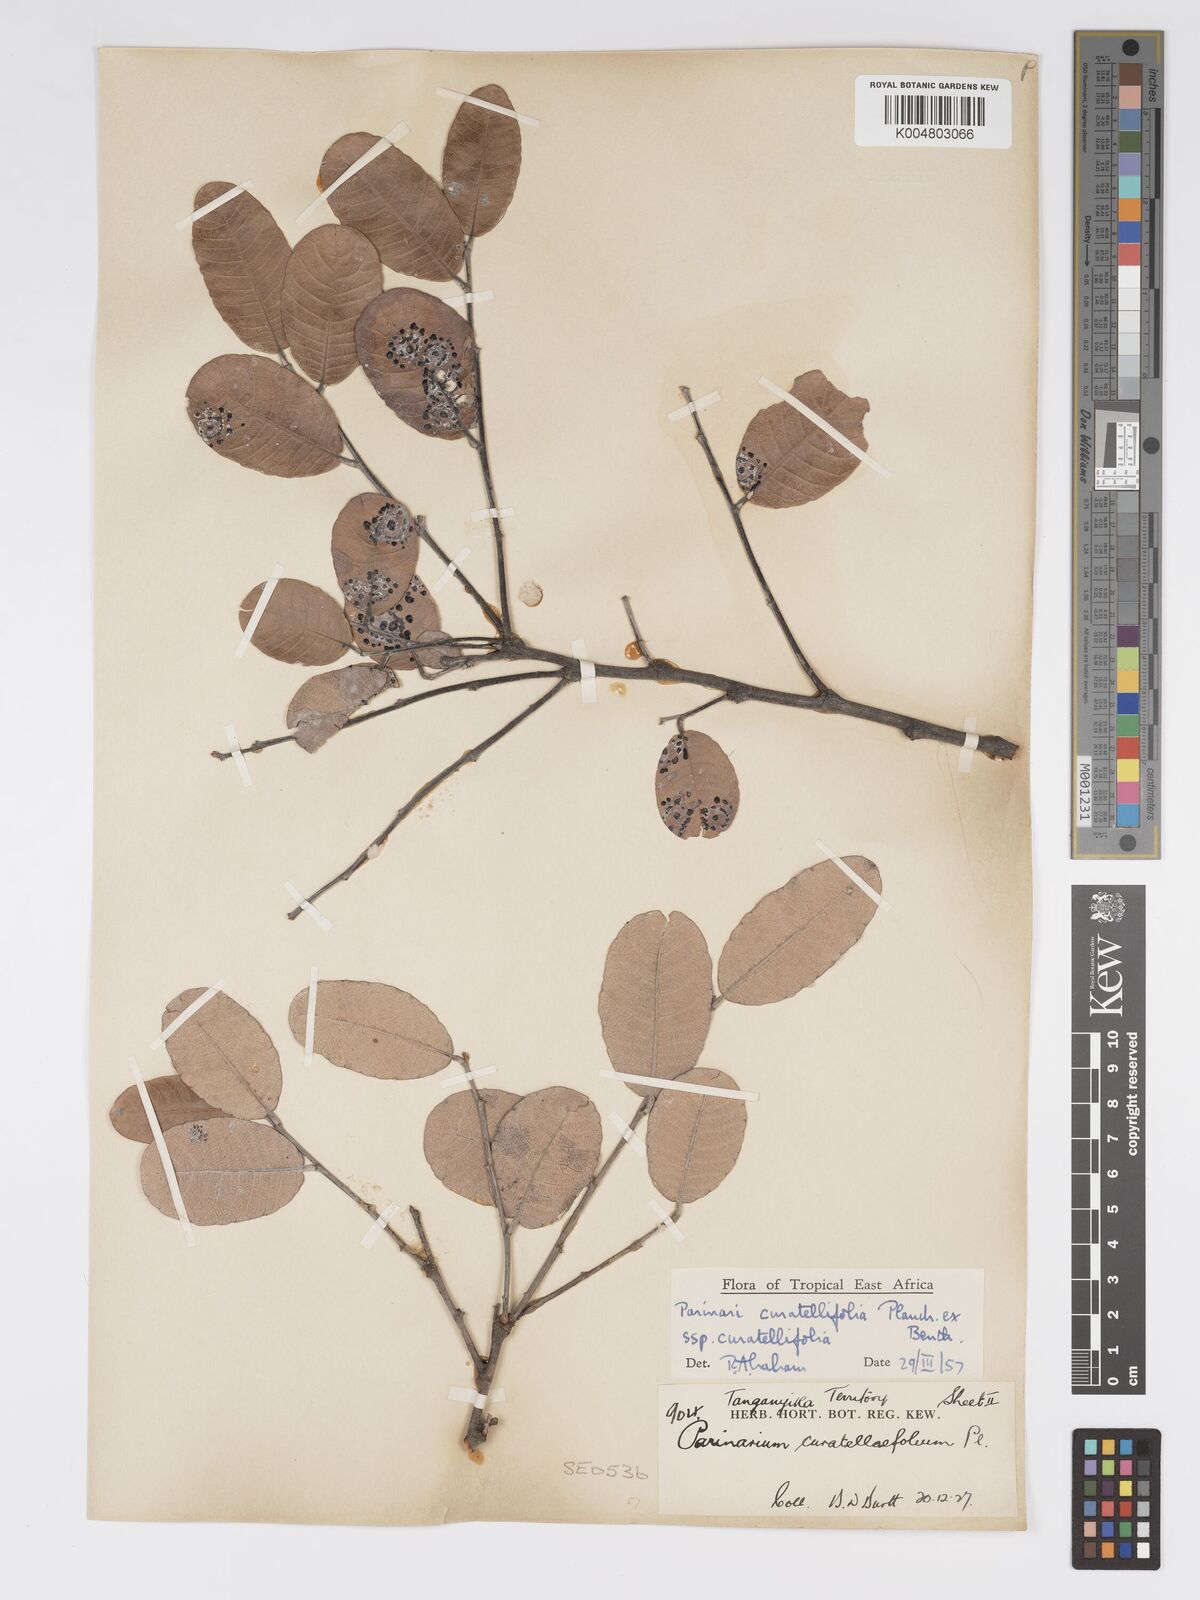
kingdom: Plantae
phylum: Tracheophyta
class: Magnoliopsida
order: Malpighiales
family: Chrysobalanaceae
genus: Parinari
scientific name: Parinari curatellifolia
